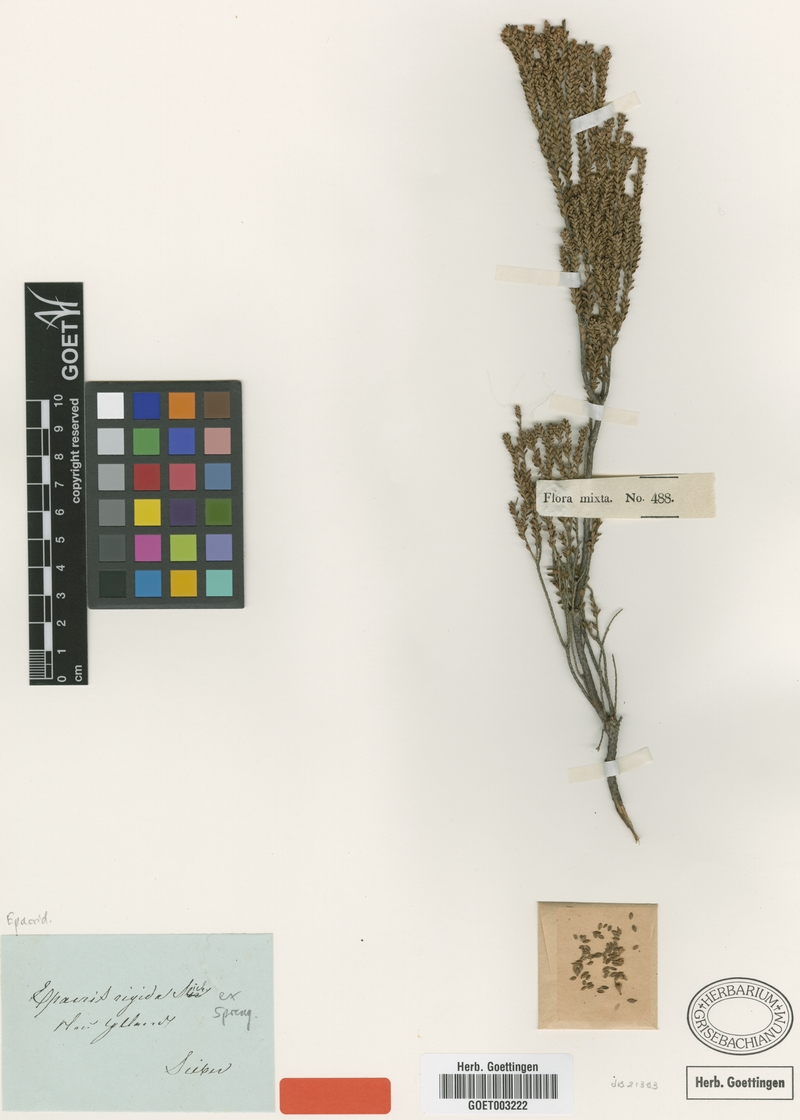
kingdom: Plantae
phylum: Tracheophyta
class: Magnoliopsida
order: Ericales
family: Ericaceae
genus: Epacris
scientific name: Epacris rigida
